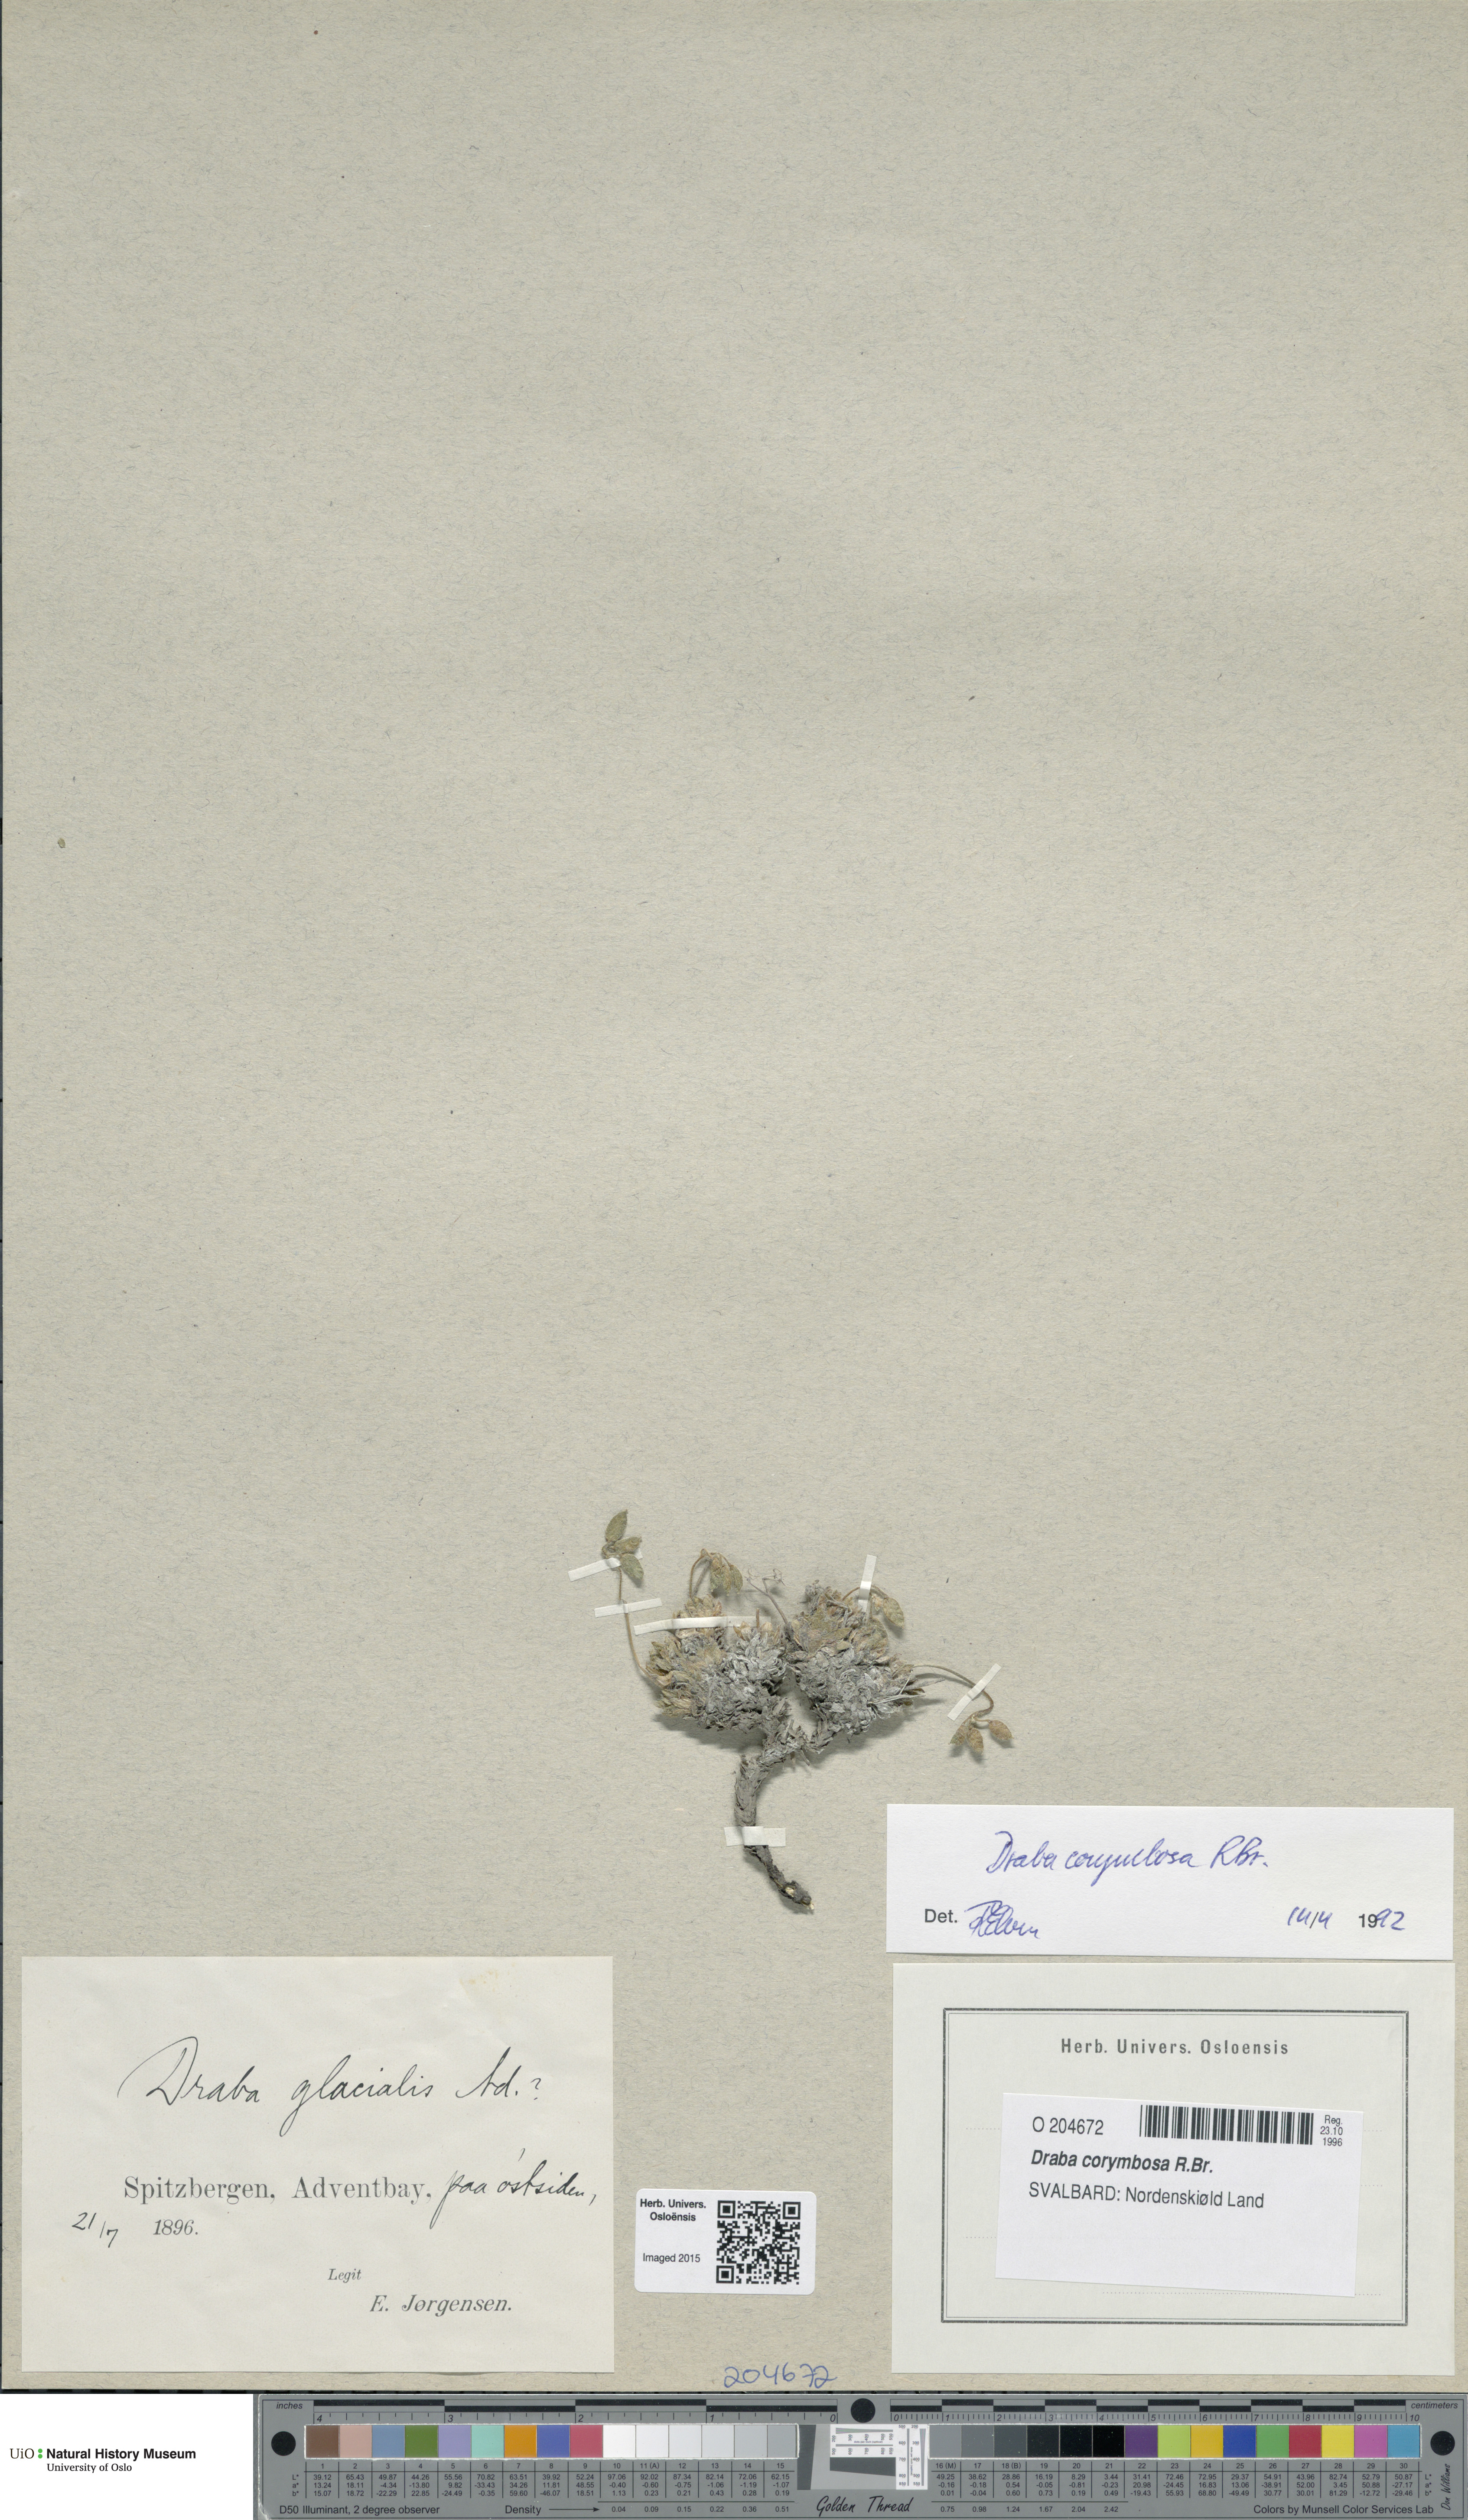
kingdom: Plantae
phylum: Tracheophyta
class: Magnoliopsida
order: Brassicales
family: Brassicaceae
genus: Draba
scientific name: Draba corymbosa
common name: Cushion whitlow-grass
